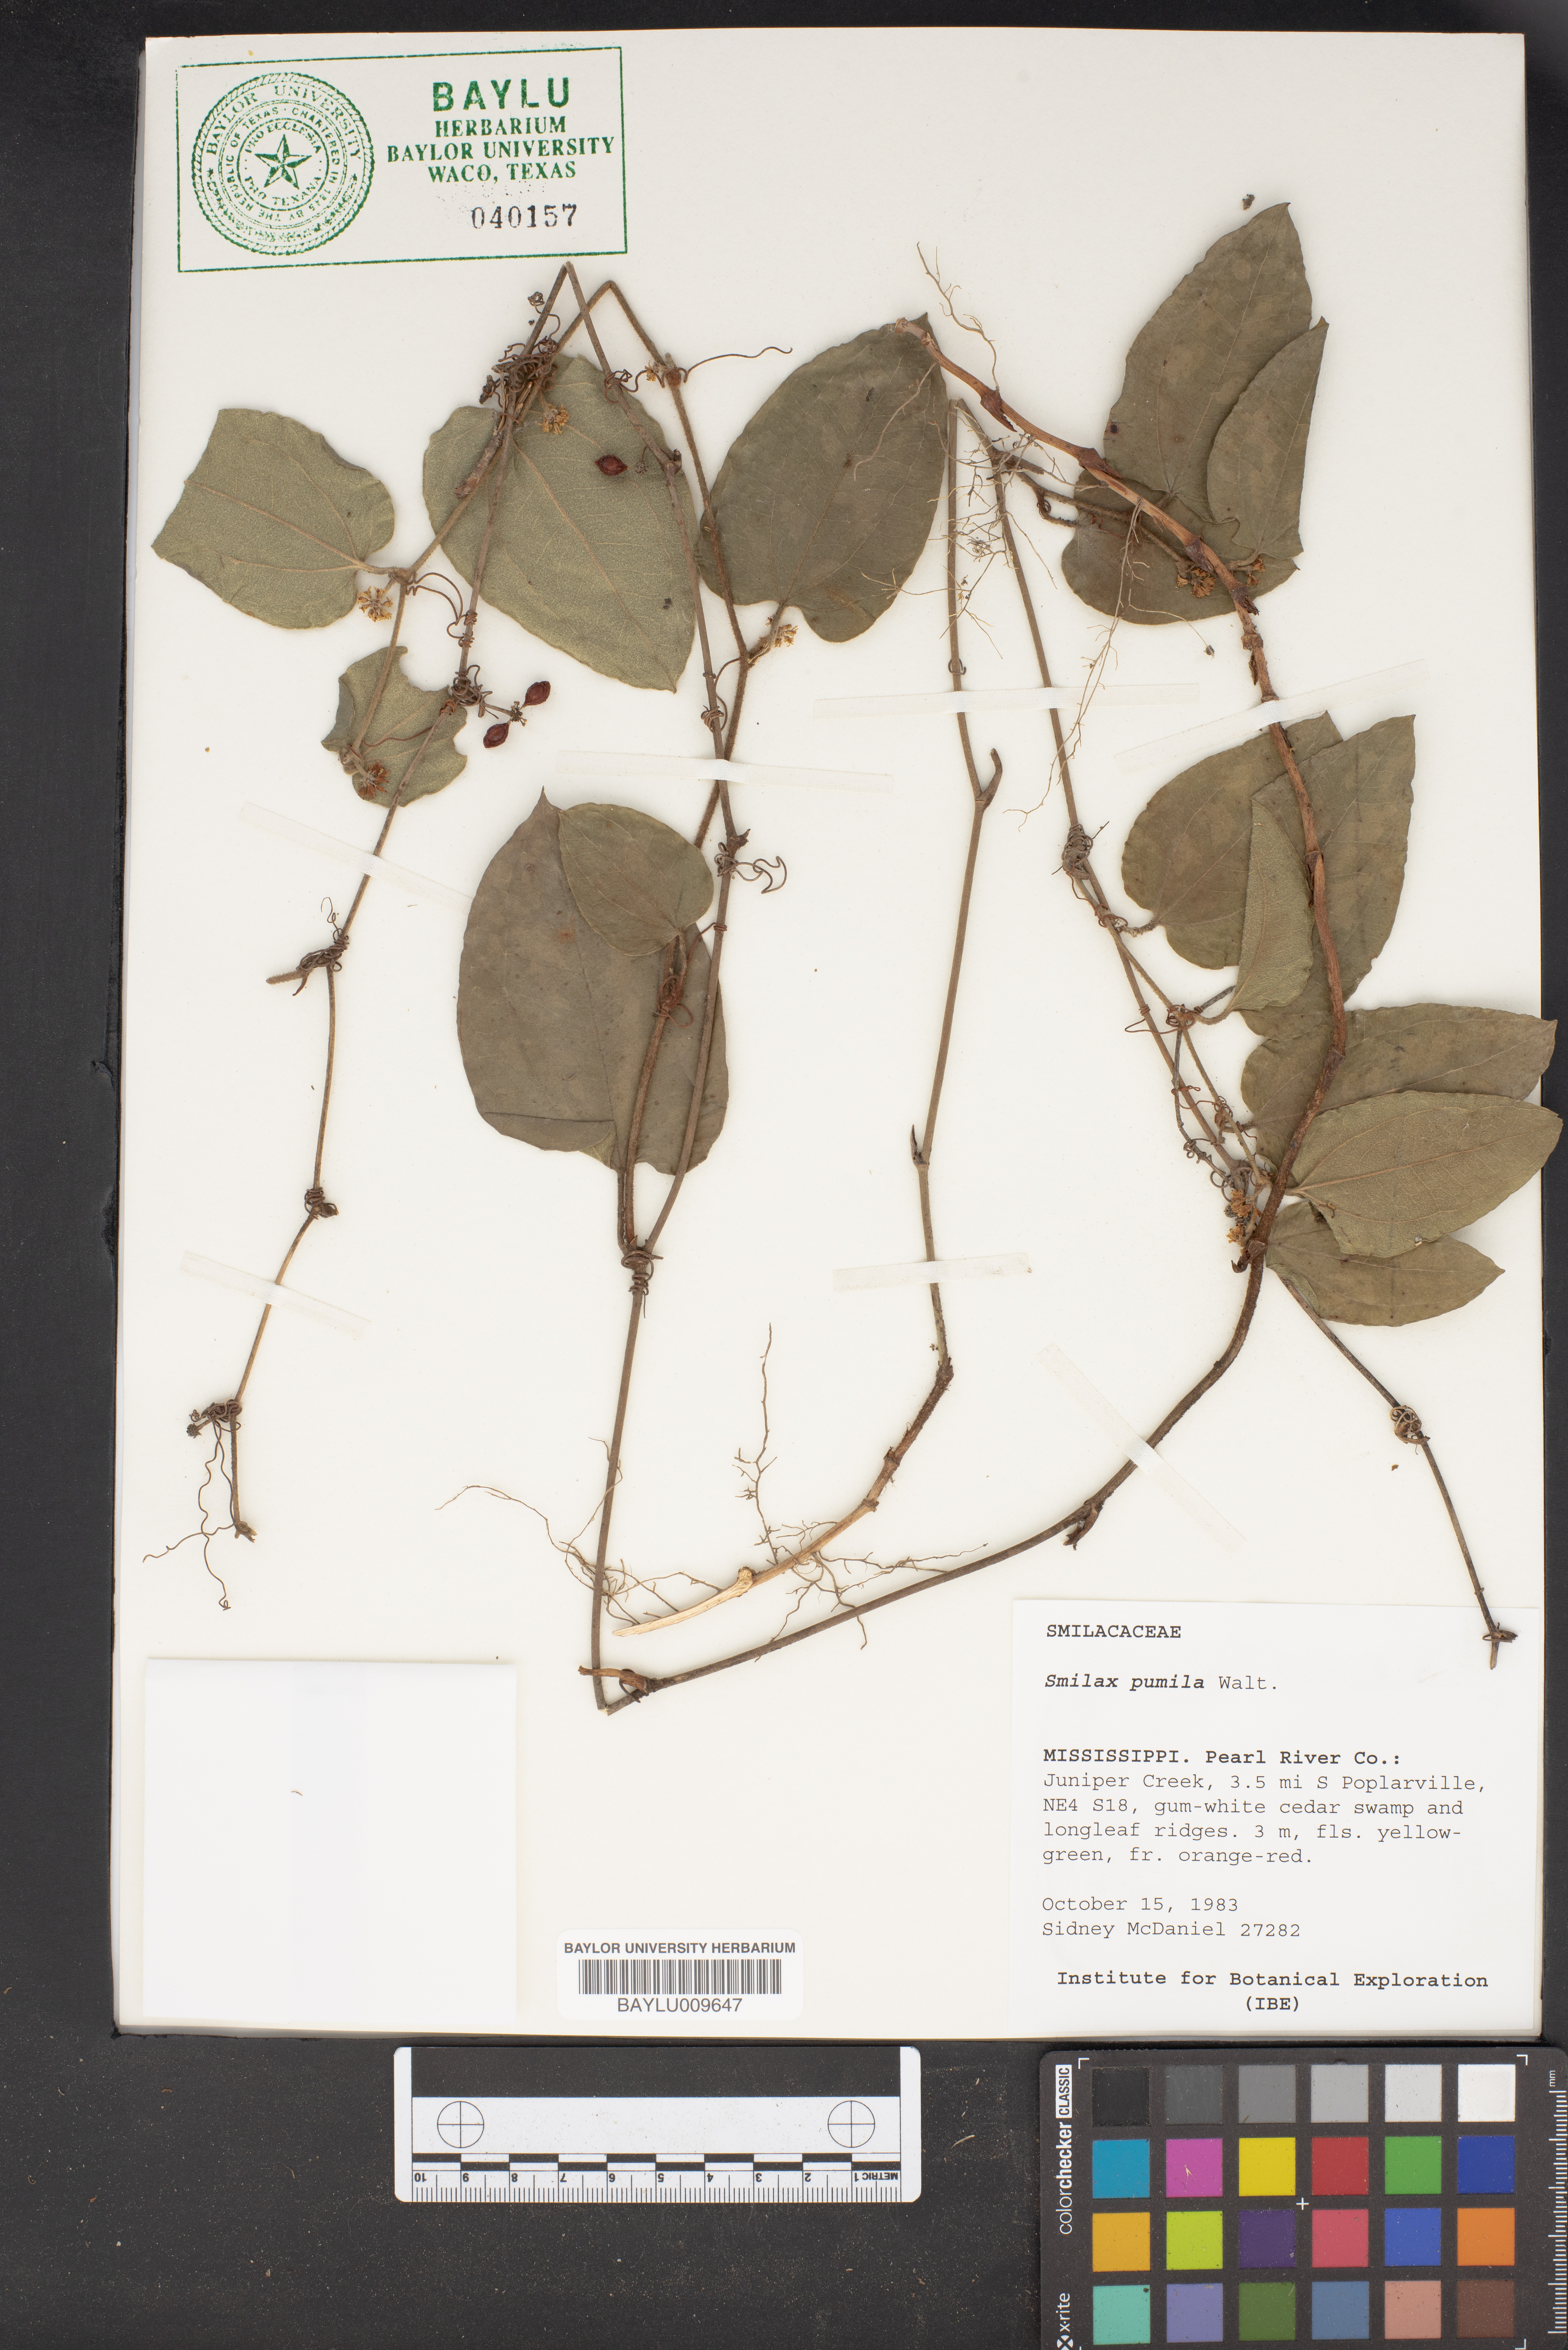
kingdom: Plantae
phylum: Tracheophyta
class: Liliopsida
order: Liliales
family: Smilacaceae
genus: Smilax
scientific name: Smilax pumila
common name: Sarsaparilla-vine
